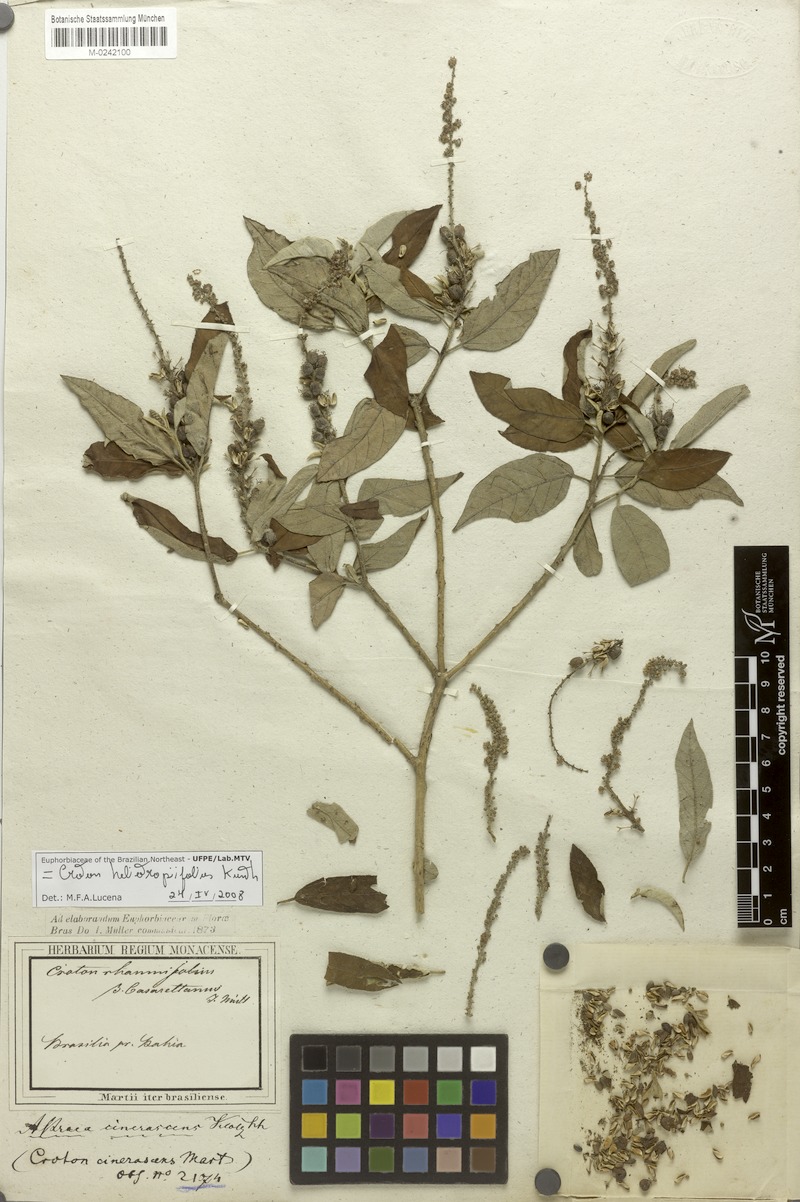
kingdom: Plantae
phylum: Tracheophyta
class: Magnoliopsida
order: Malpighiales
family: Euphorbiaceae
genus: Croton
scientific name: Croton heliotropiifolius
